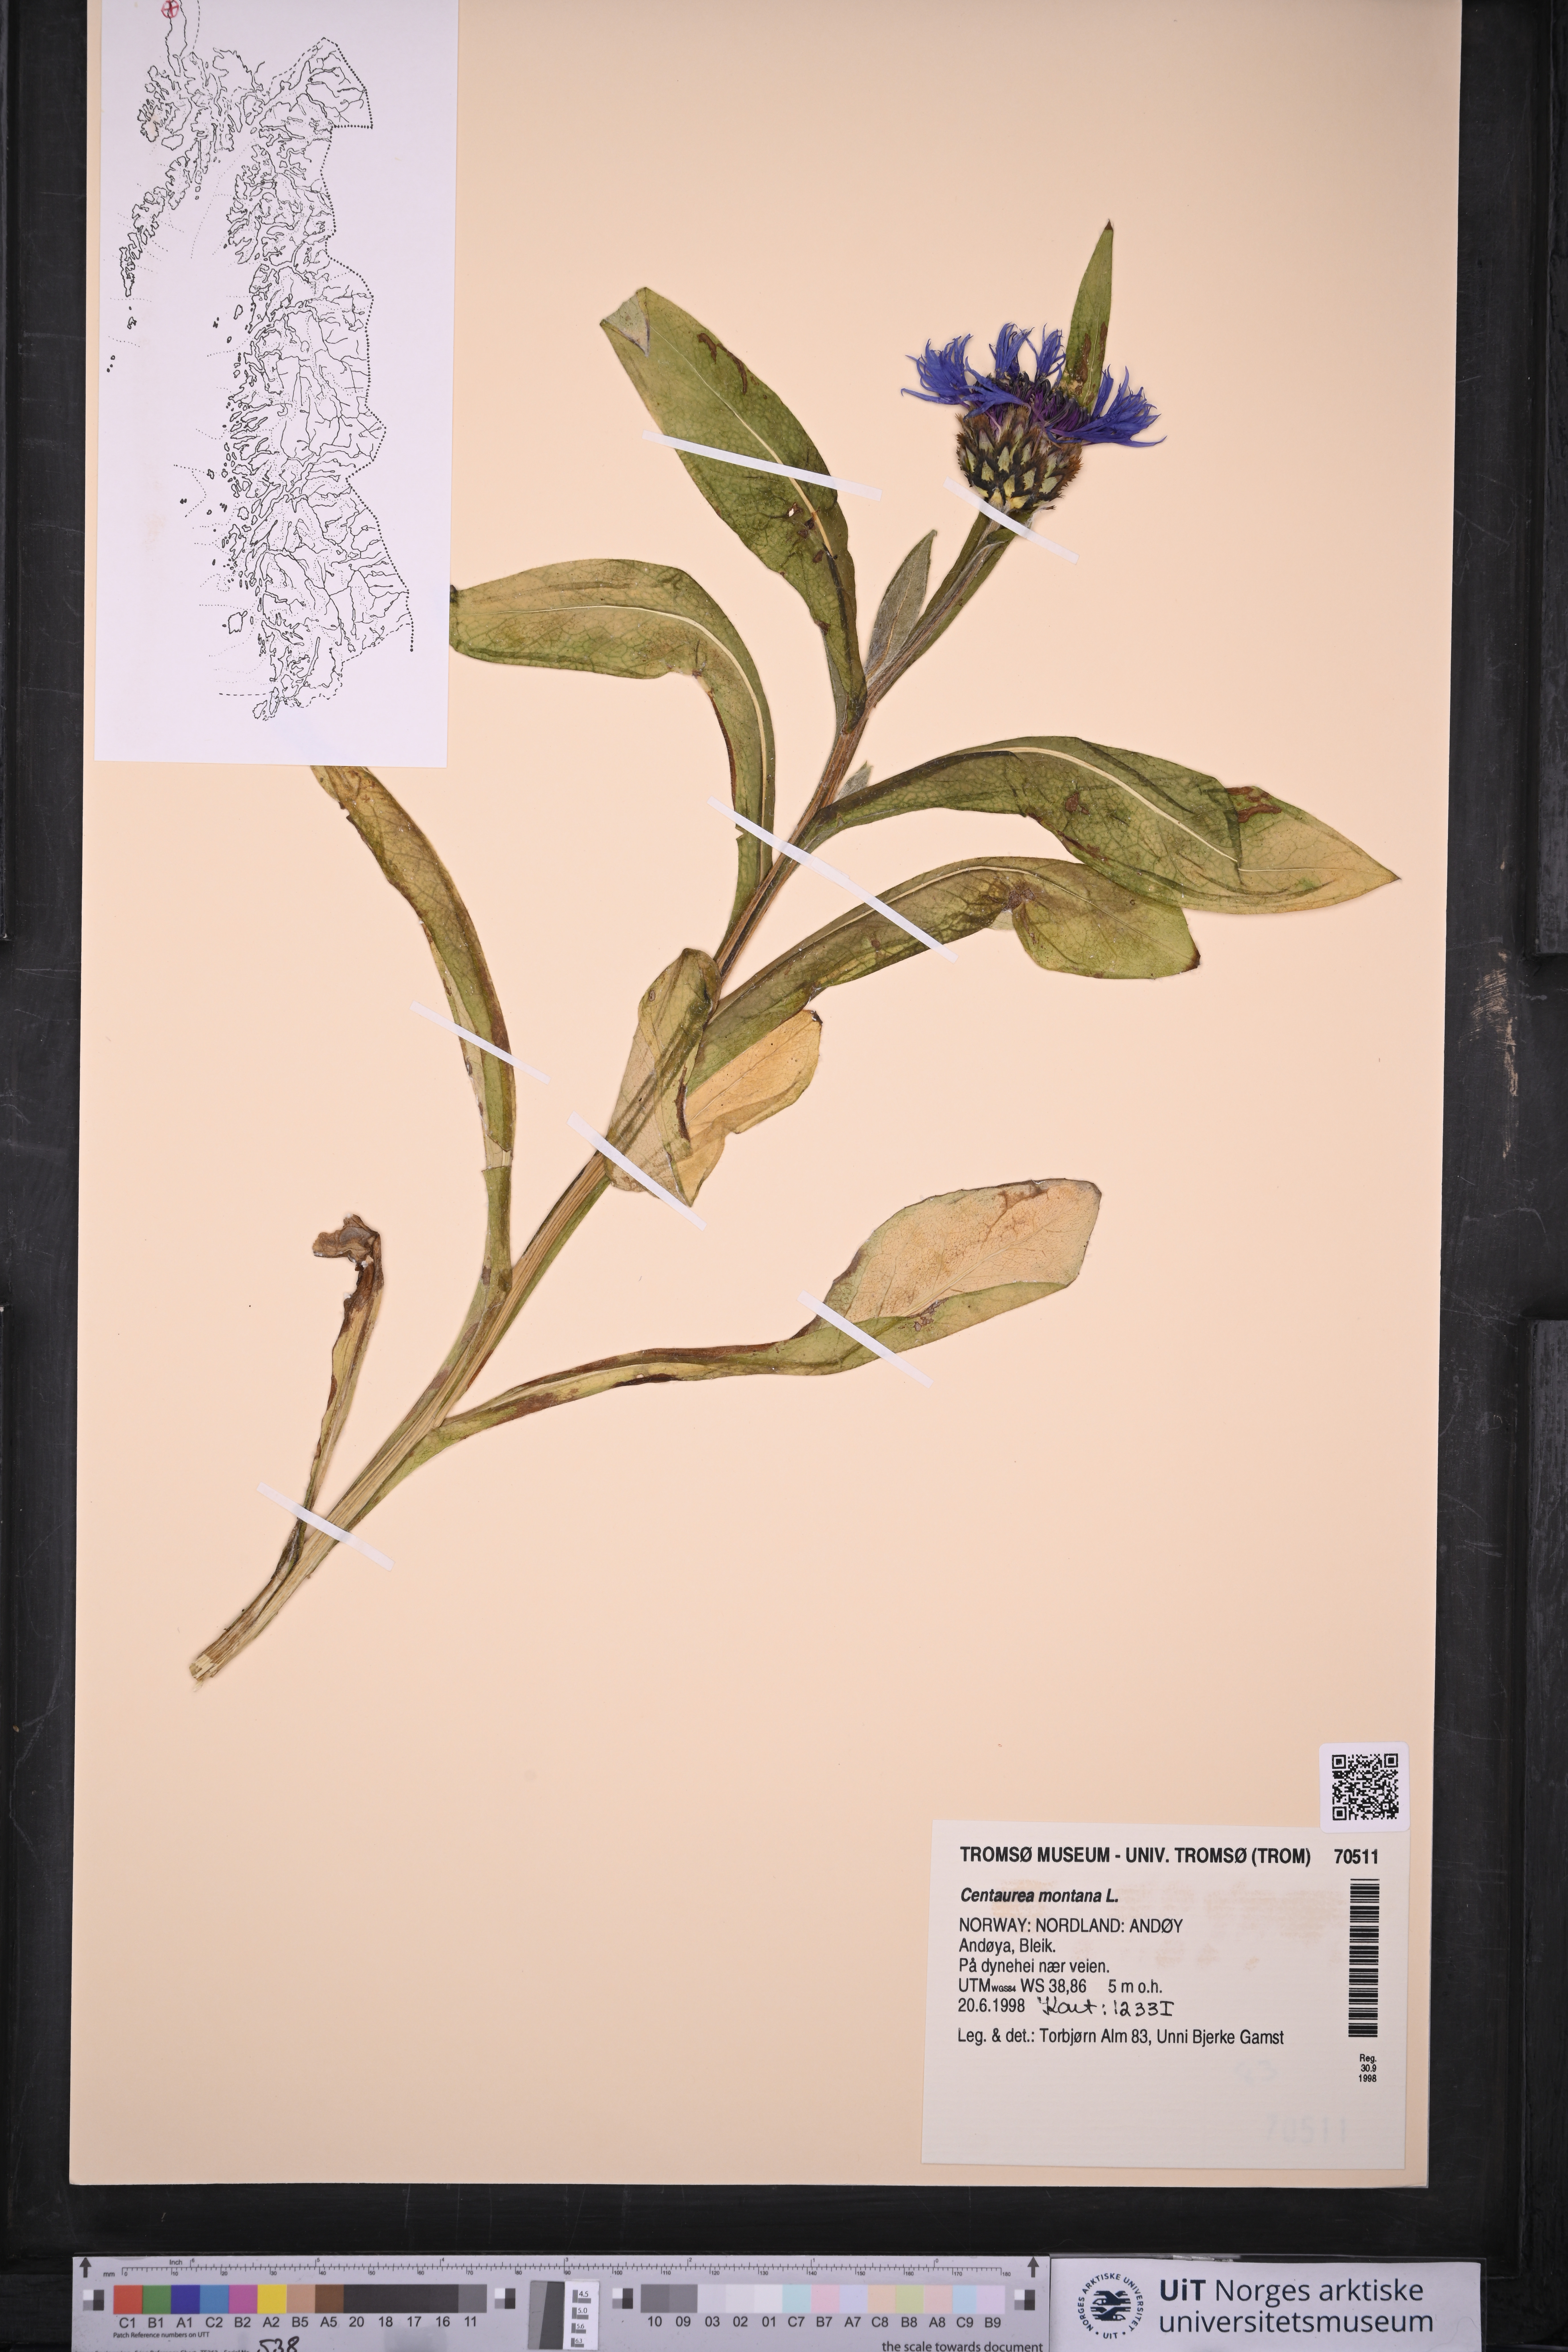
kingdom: Plantae
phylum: Tracheophyta
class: Magnoliopsida
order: Asterales
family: Asteraceae
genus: Centaurea
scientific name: Centaurea montana
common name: Perennial cornflower
